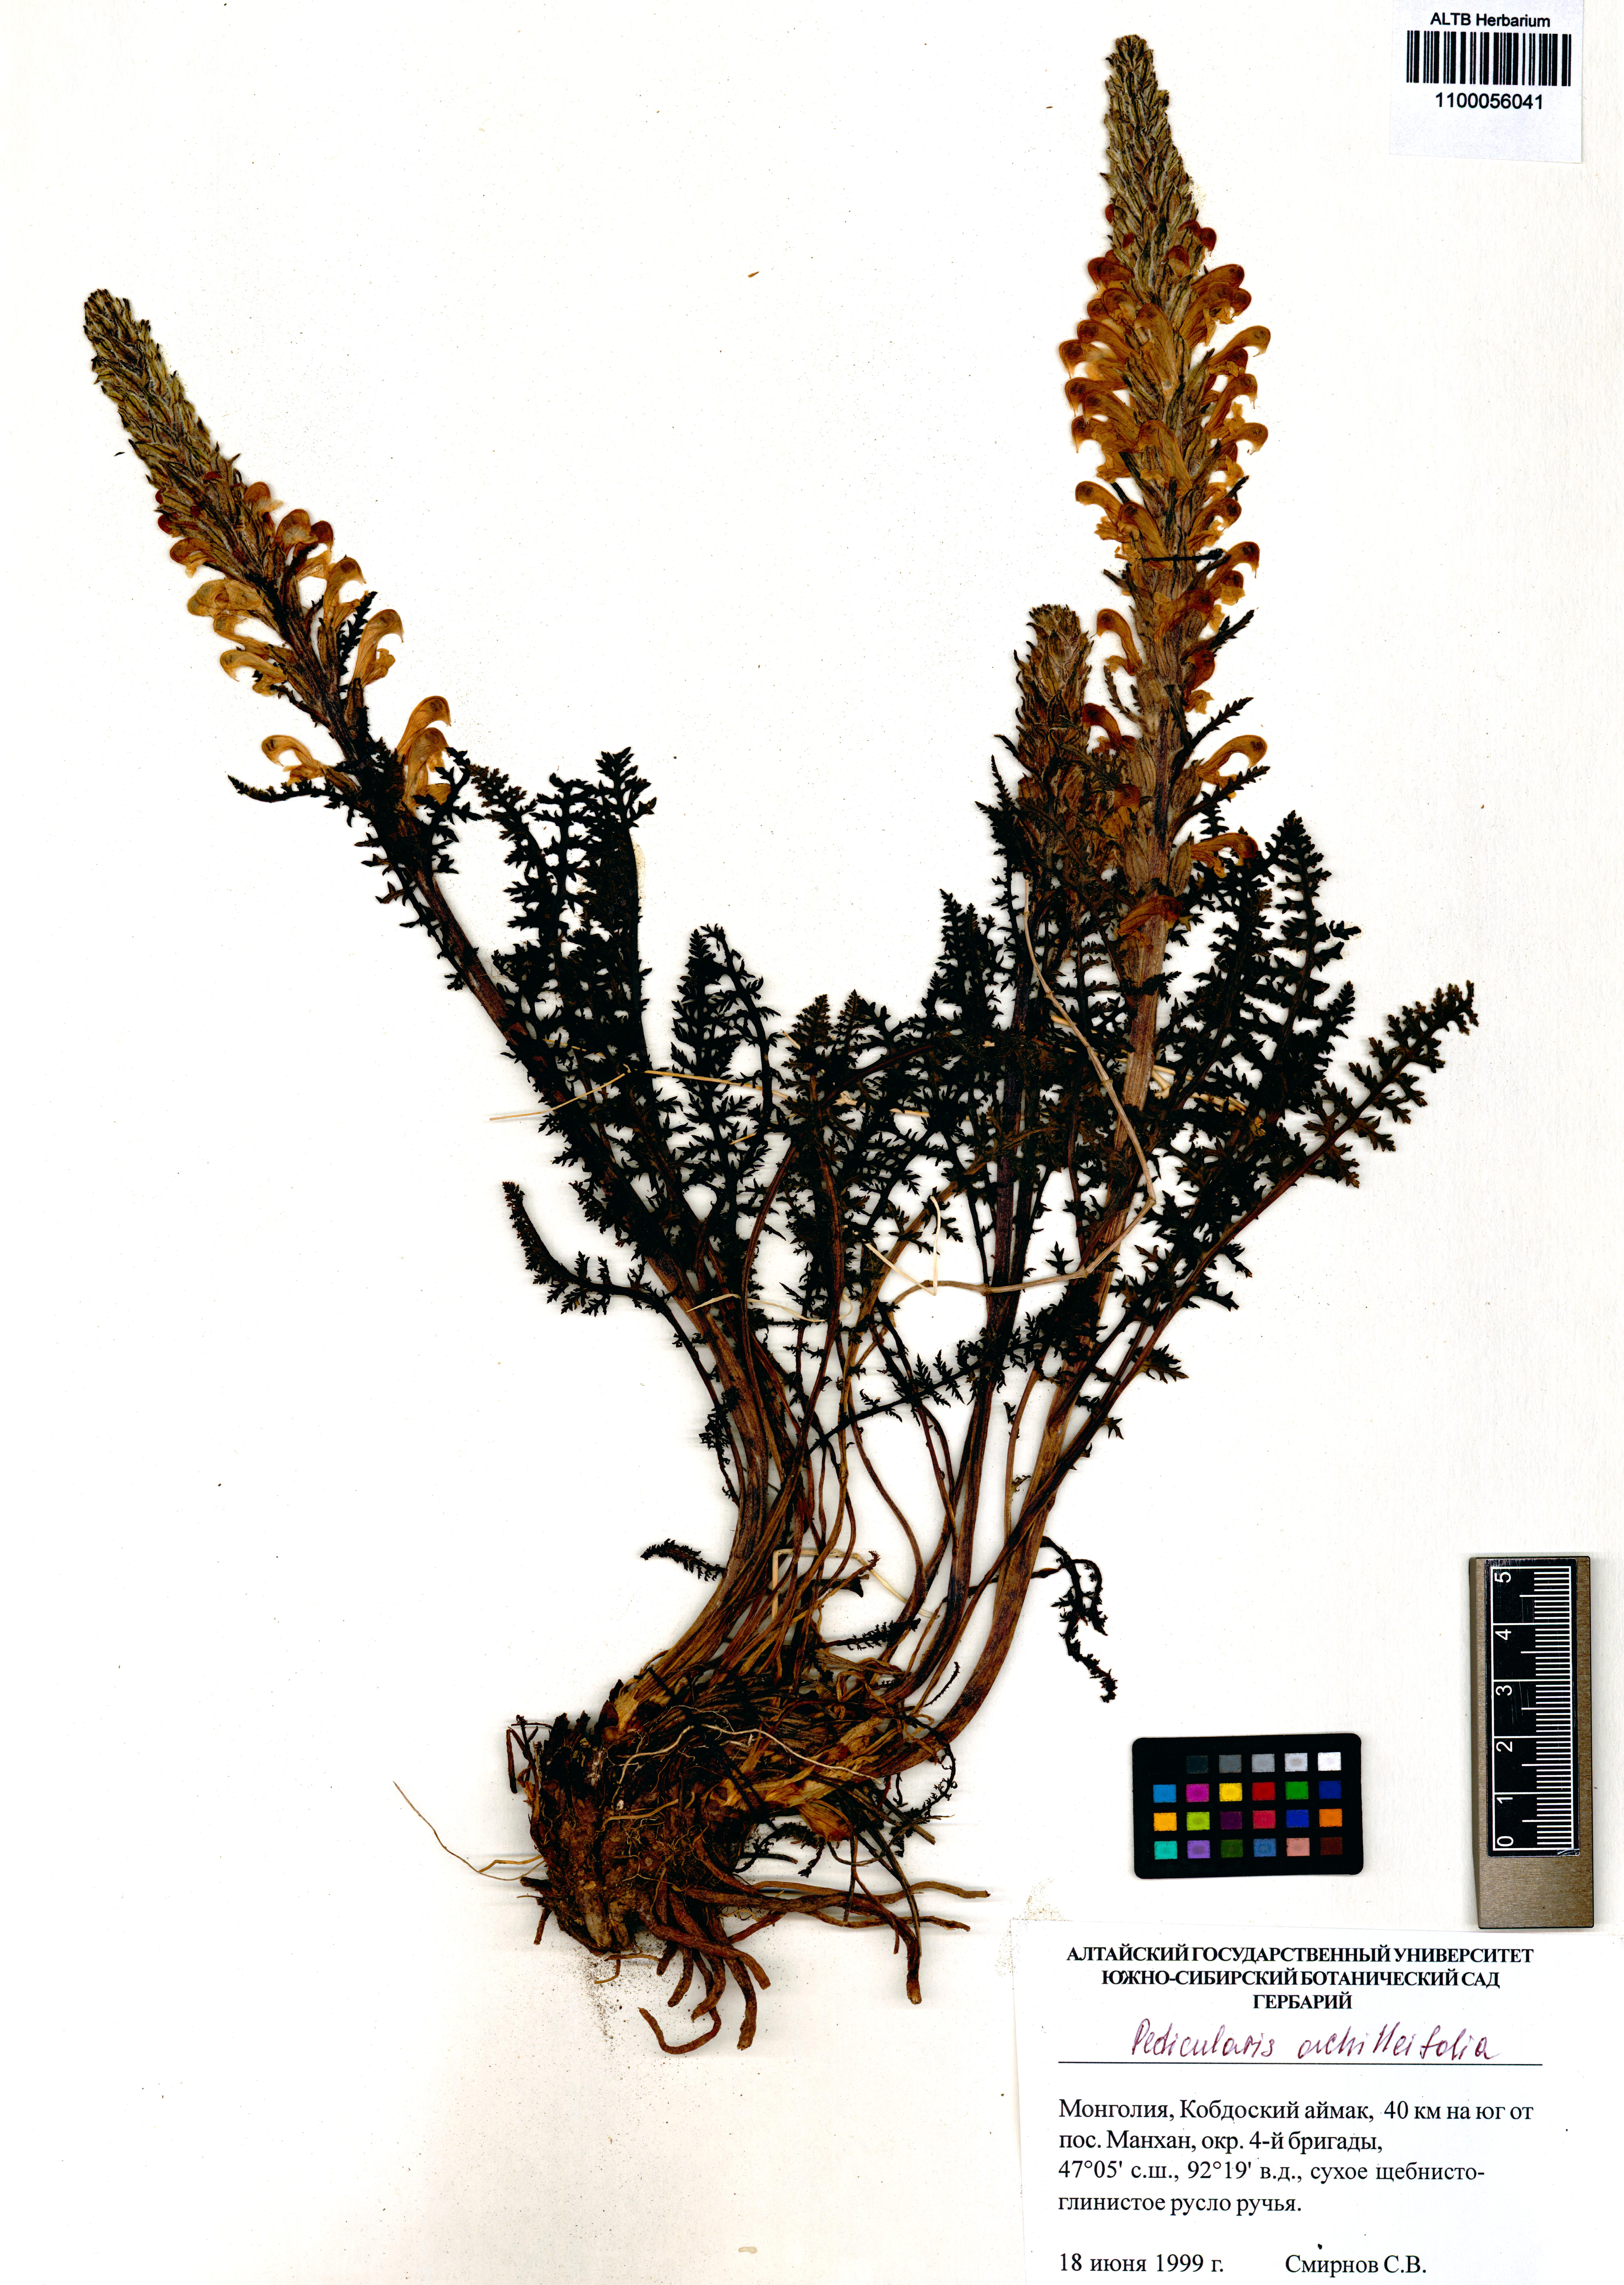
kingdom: Plantae
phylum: Tracheophyta
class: Magnoliopsida
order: Lamiales
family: Orobanchaceae
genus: Pedicularis
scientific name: Pedicularis achilleifolia
